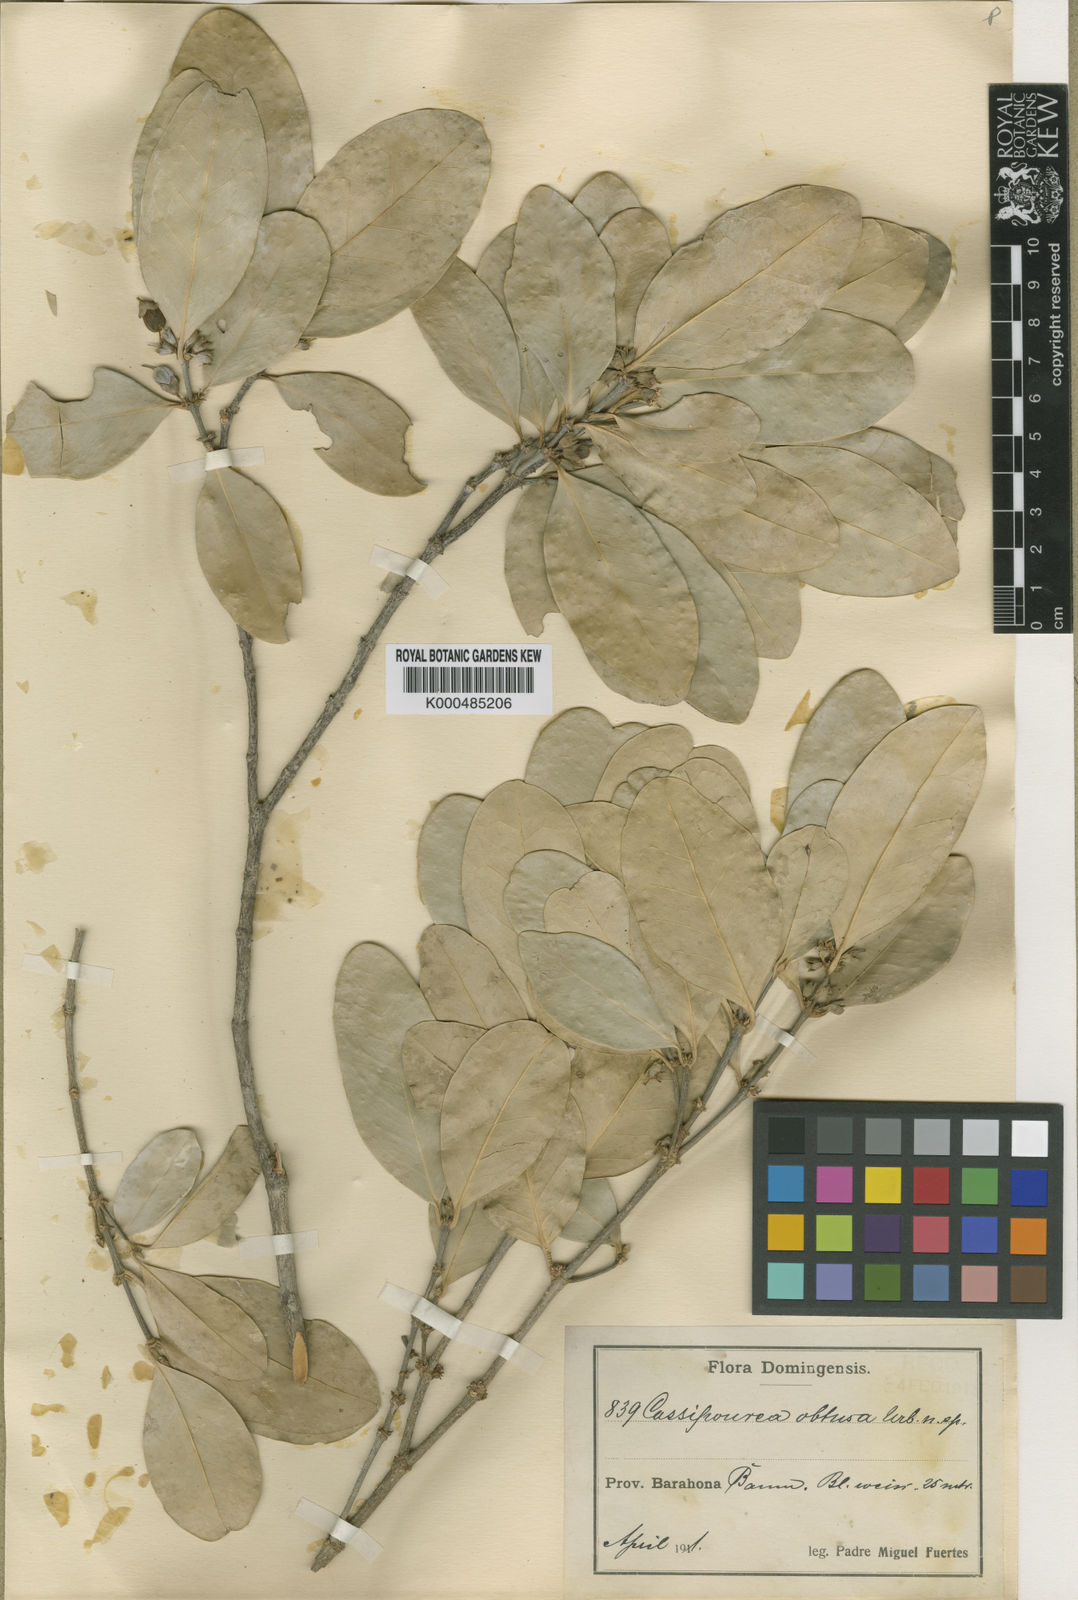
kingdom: Plantae
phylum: Tracheophyta
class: Magnoliopsida
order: Malpighiales
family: Rhizophoraceae
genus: Cassipourea
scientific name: Cassipourea obtusa
